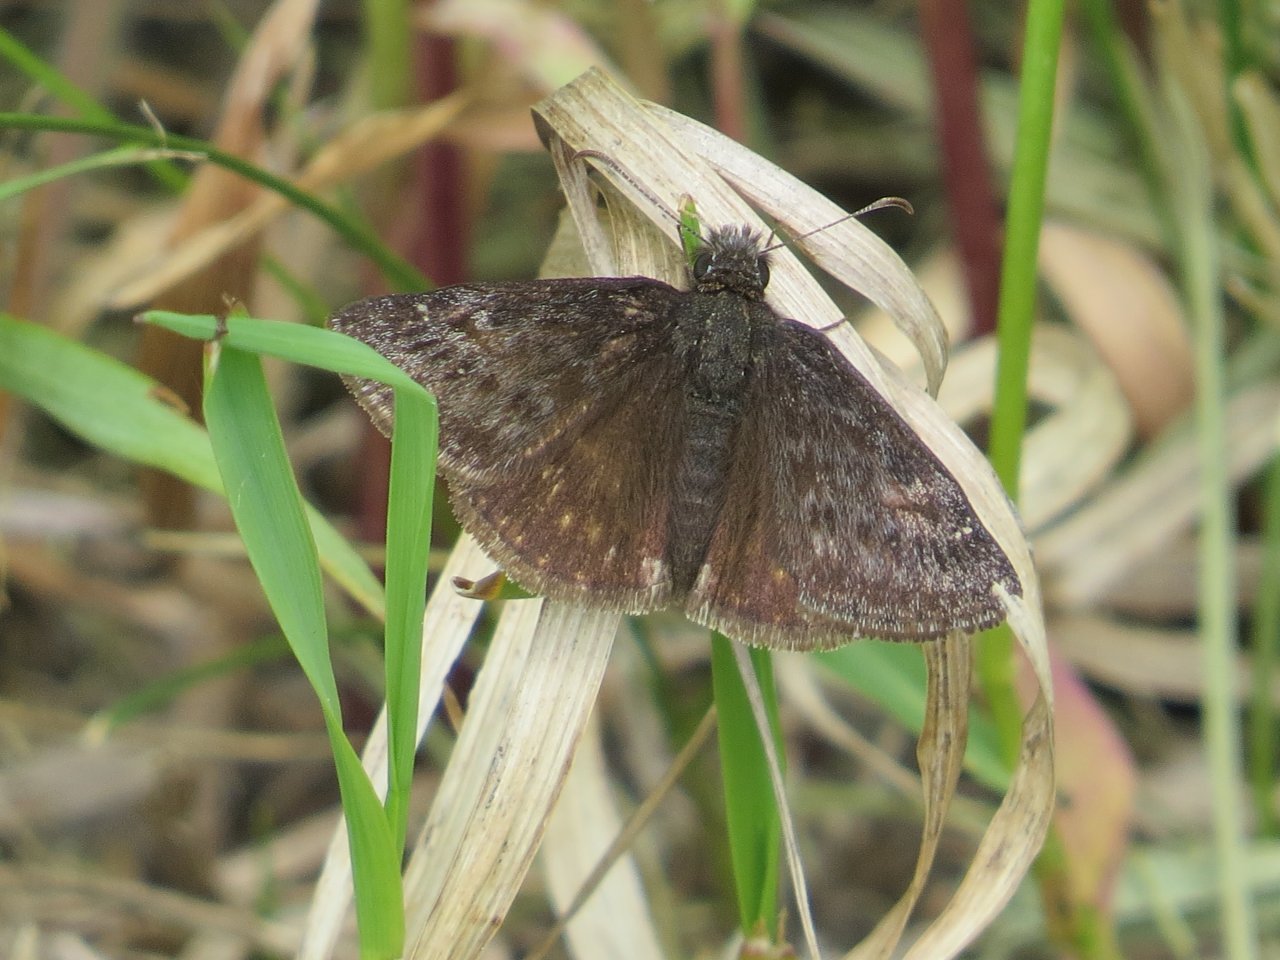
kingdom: Animalia
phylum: Arthropoda
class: Insecta
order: Lepidoptera
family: Hesperiidae
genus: Gesta
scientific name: Gesta
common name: Persius Duskywing
